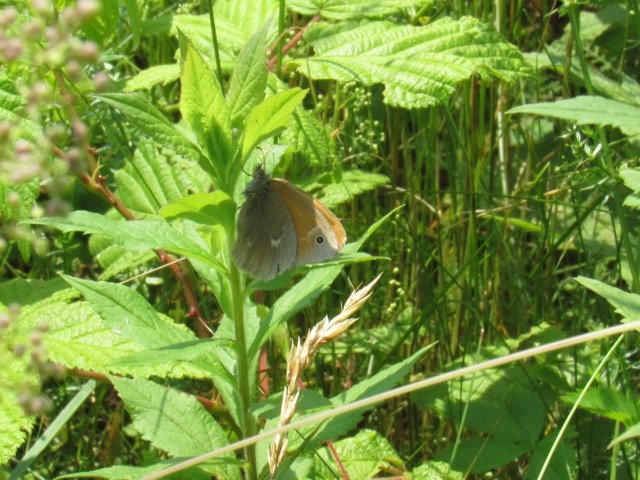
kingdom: Animalia
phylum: Arthropoda
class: Insecta
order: Lepidoptera
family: Nymphalidae
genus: Coenonympha
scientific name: Coenonympha tullia
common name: Large Heath
